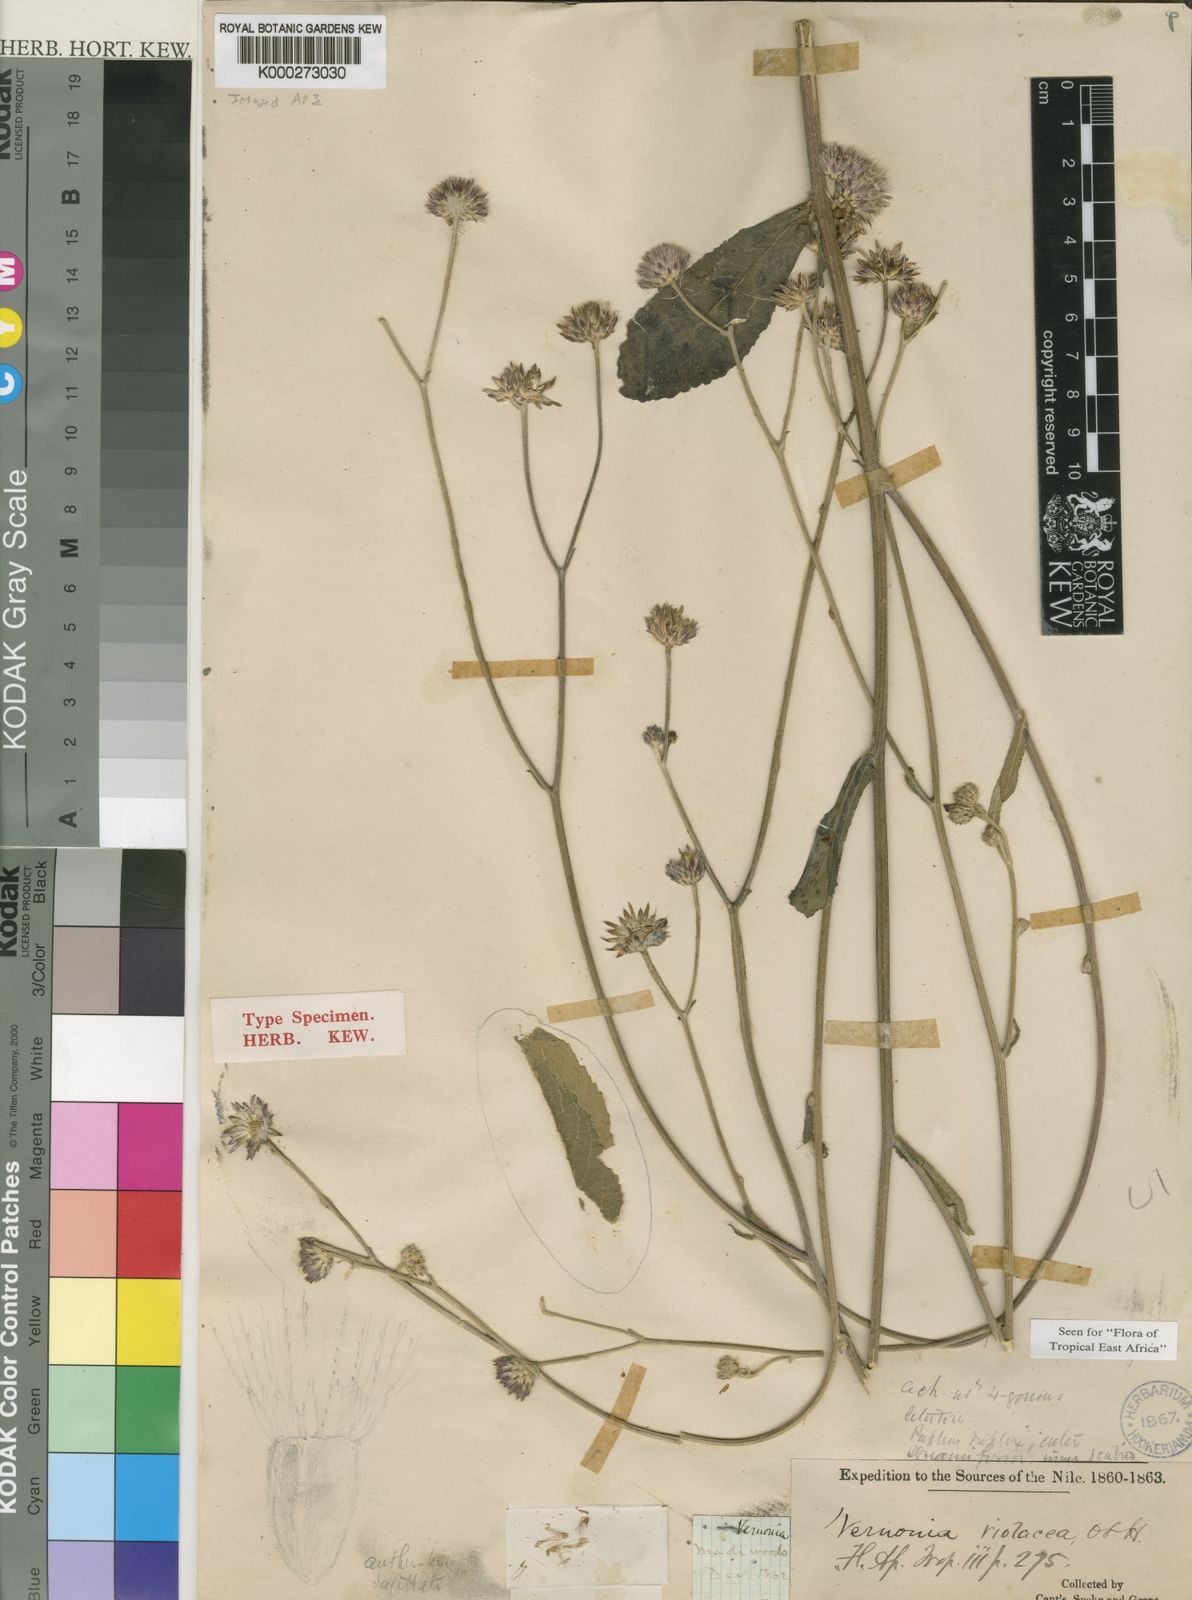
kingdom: Plantae
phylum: Tracheophyta
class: Magnoliopsida
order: Asterales
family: Asteraceae
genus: Vernonia
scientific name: Vernonia violacea
